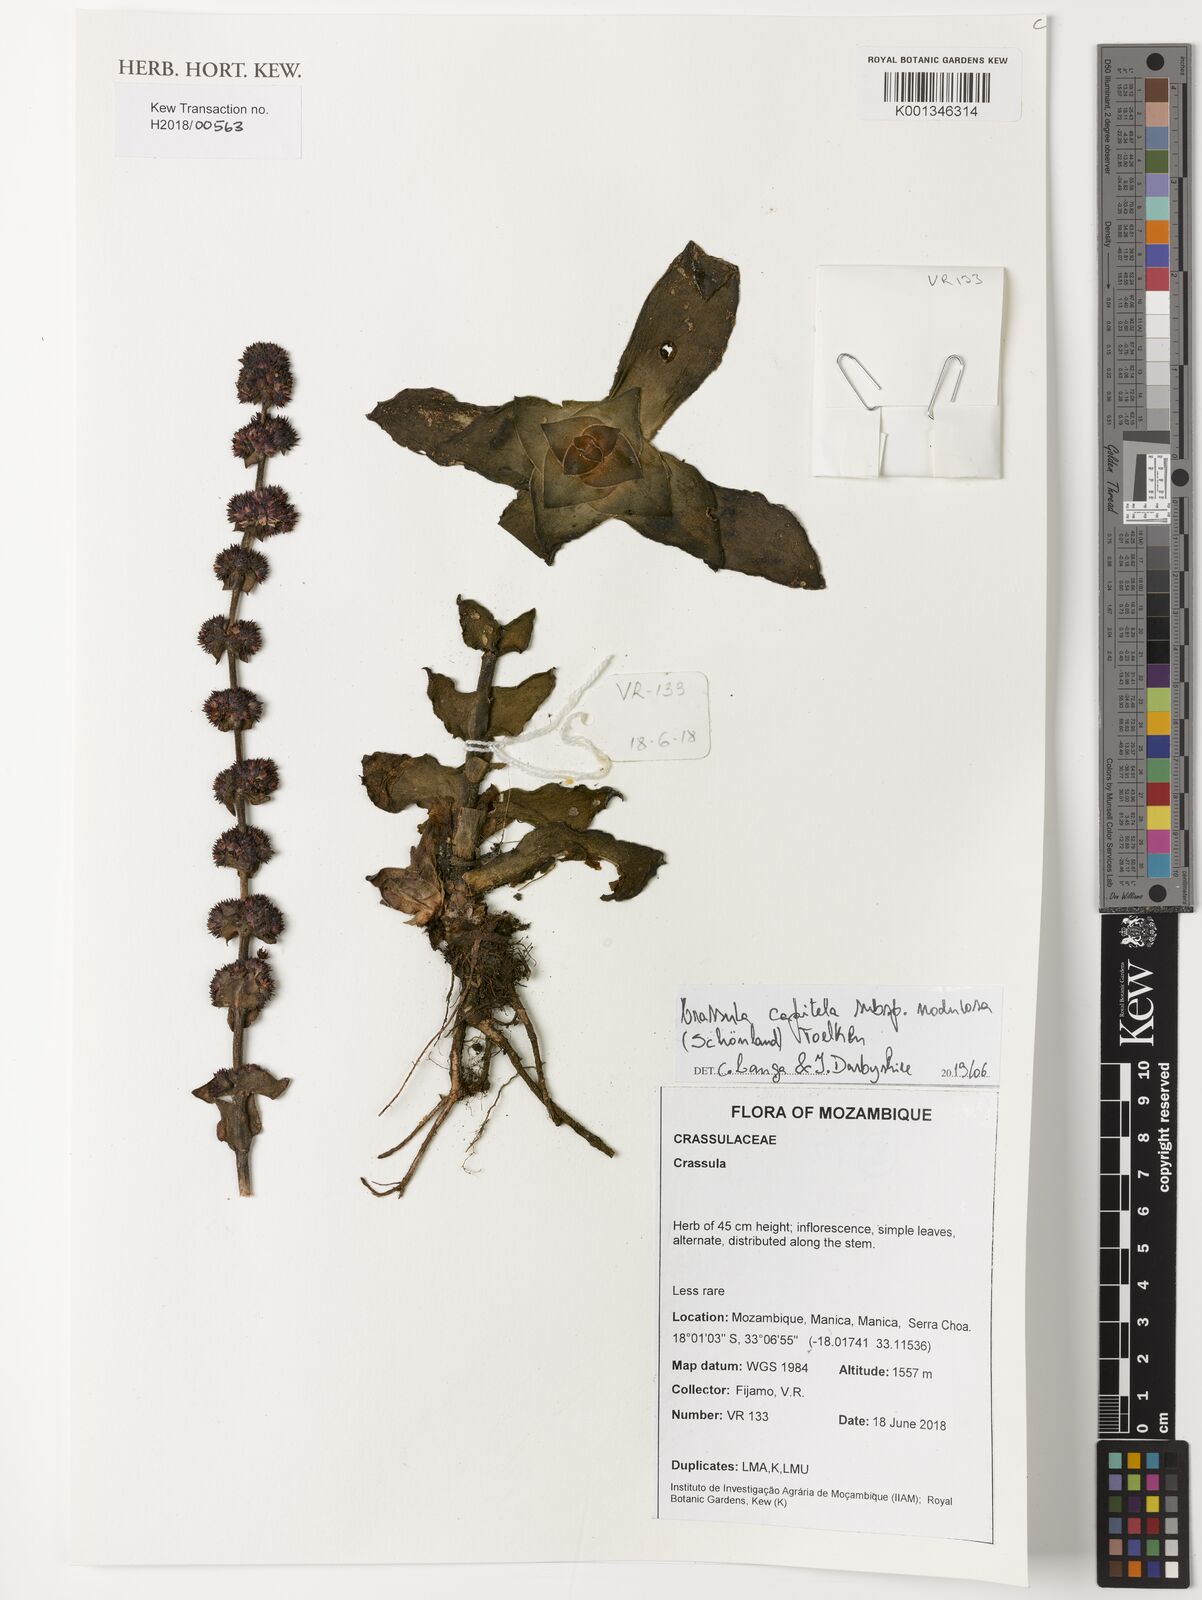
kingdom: Plantae
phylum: Tracheophyta
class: Magnoliopsida
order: Saxifragales
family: Crassulaceae
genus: Crassula
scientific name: Crassula nodulosa
